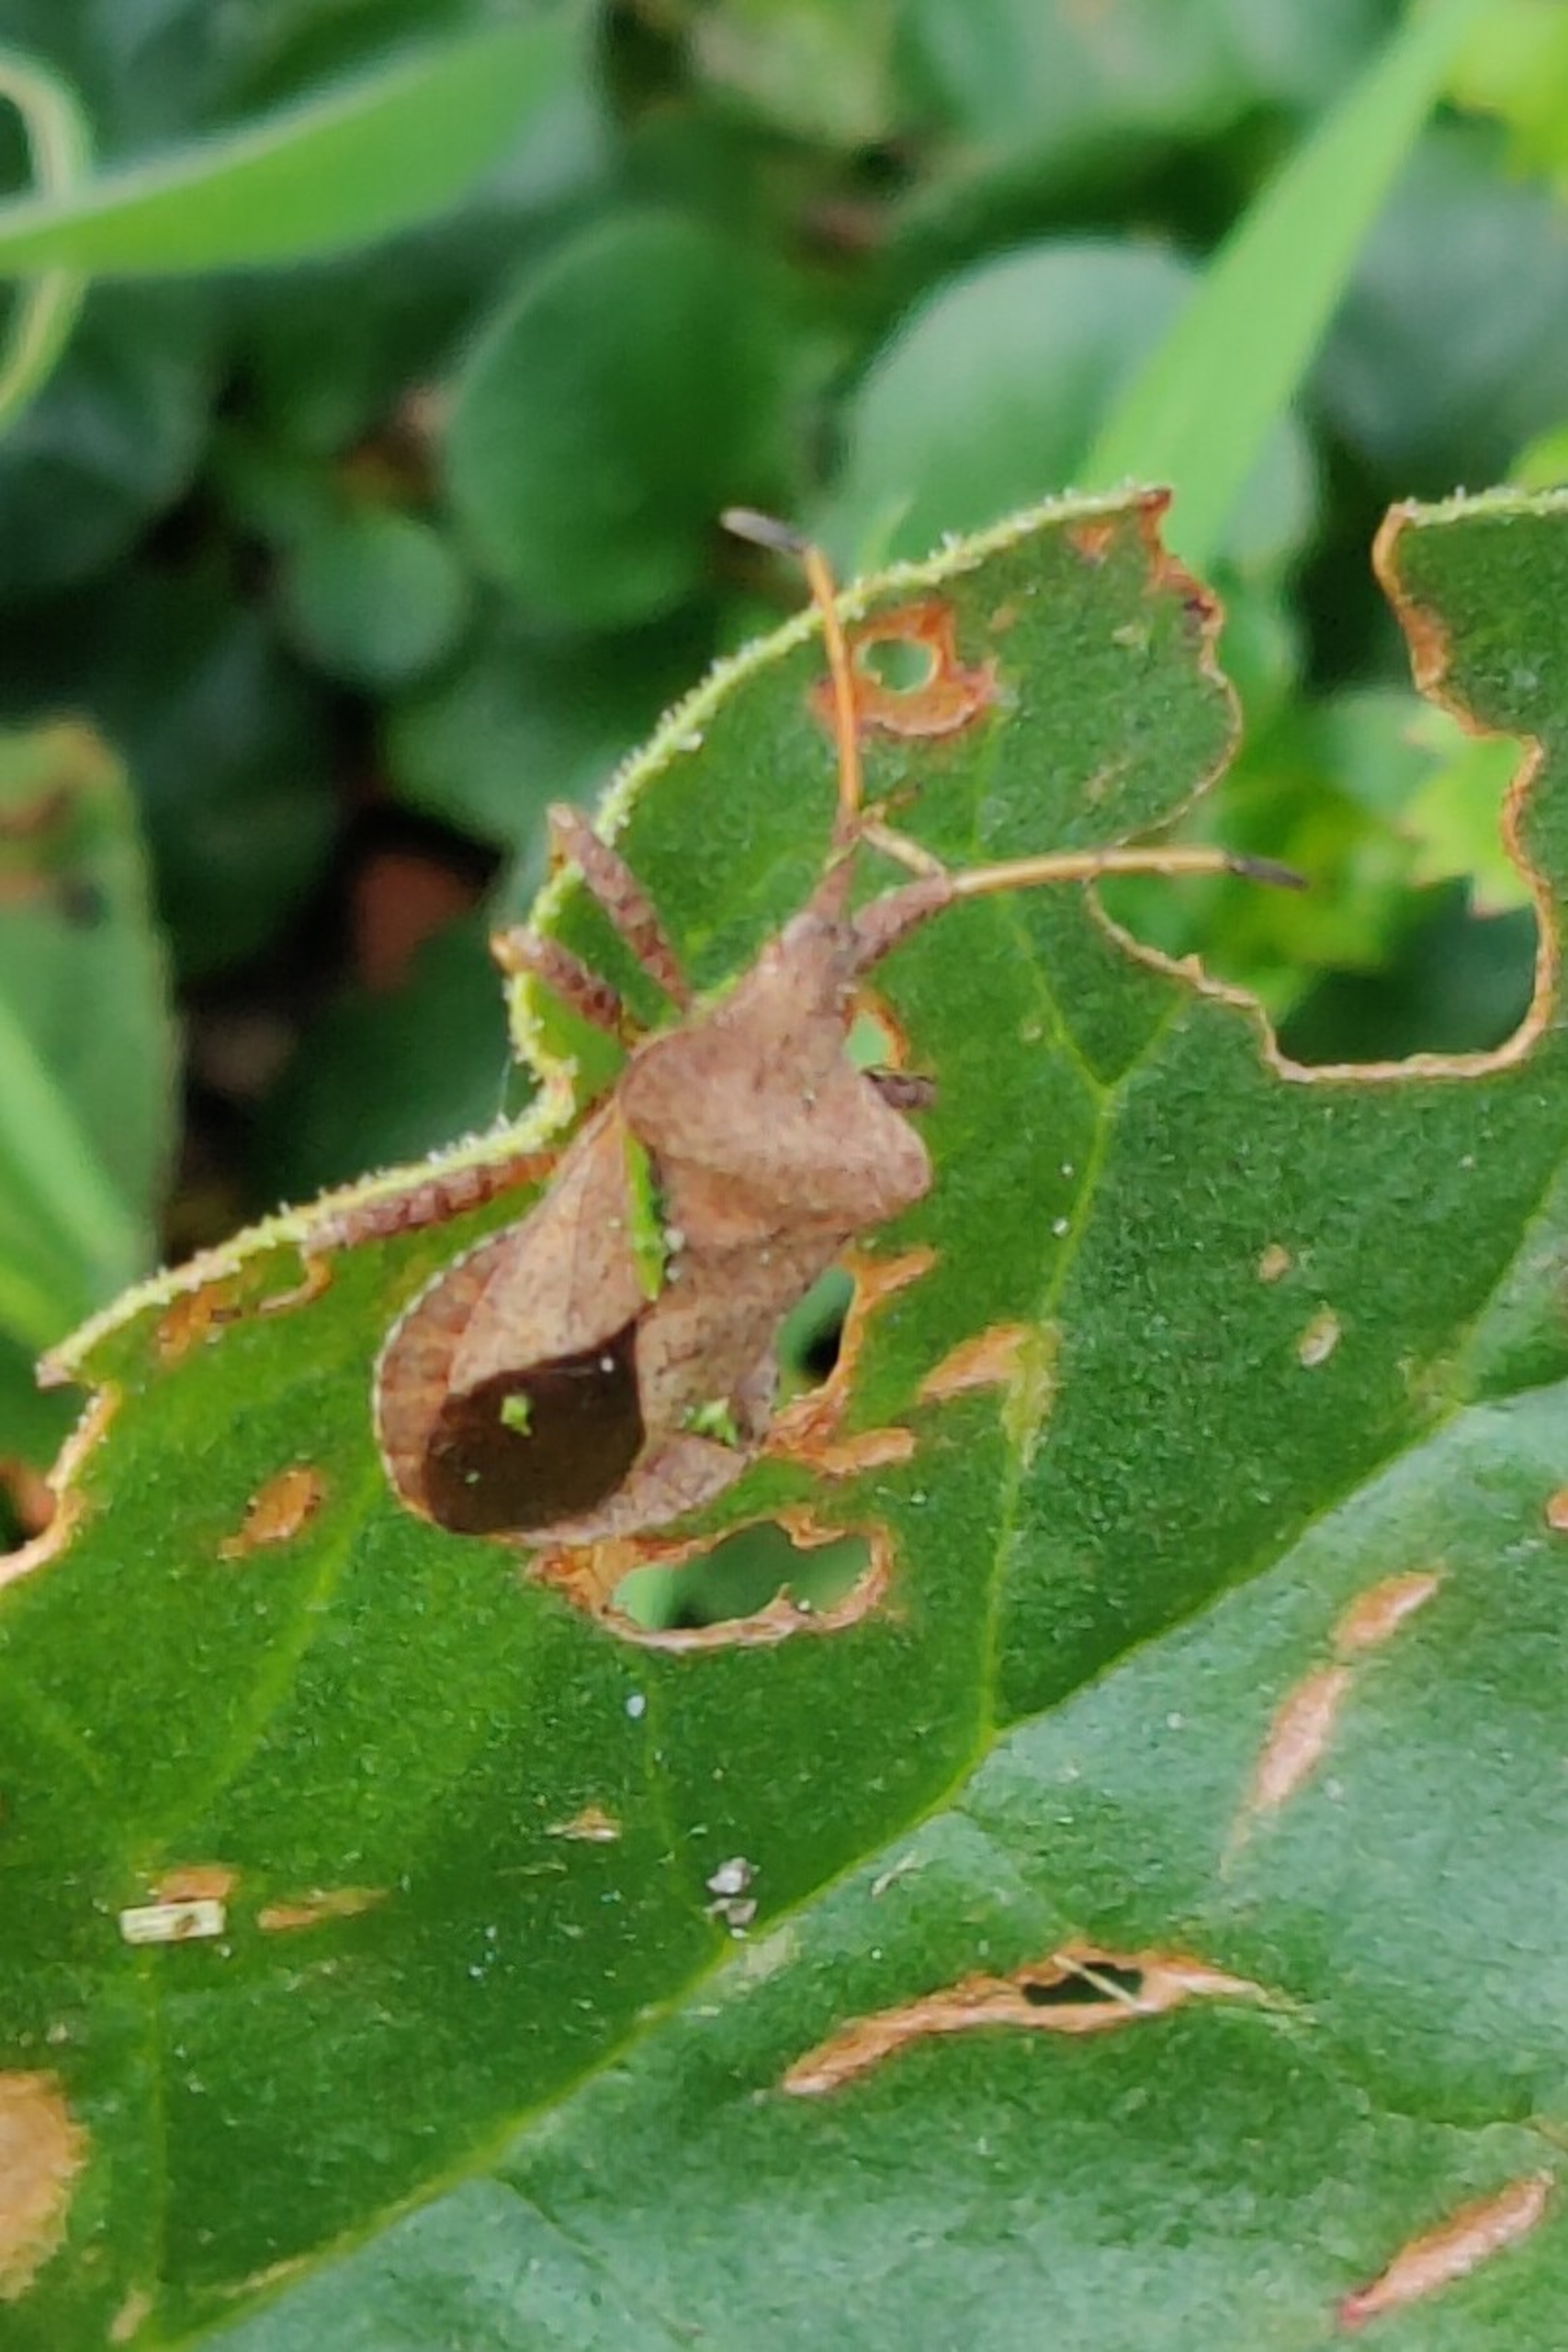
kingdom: Animalia
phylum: Arthropoda
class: Insecta
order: Hemiptera
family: Coreidae
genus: Coreus
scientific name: Coreus marginatus
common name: Skræppetæge
